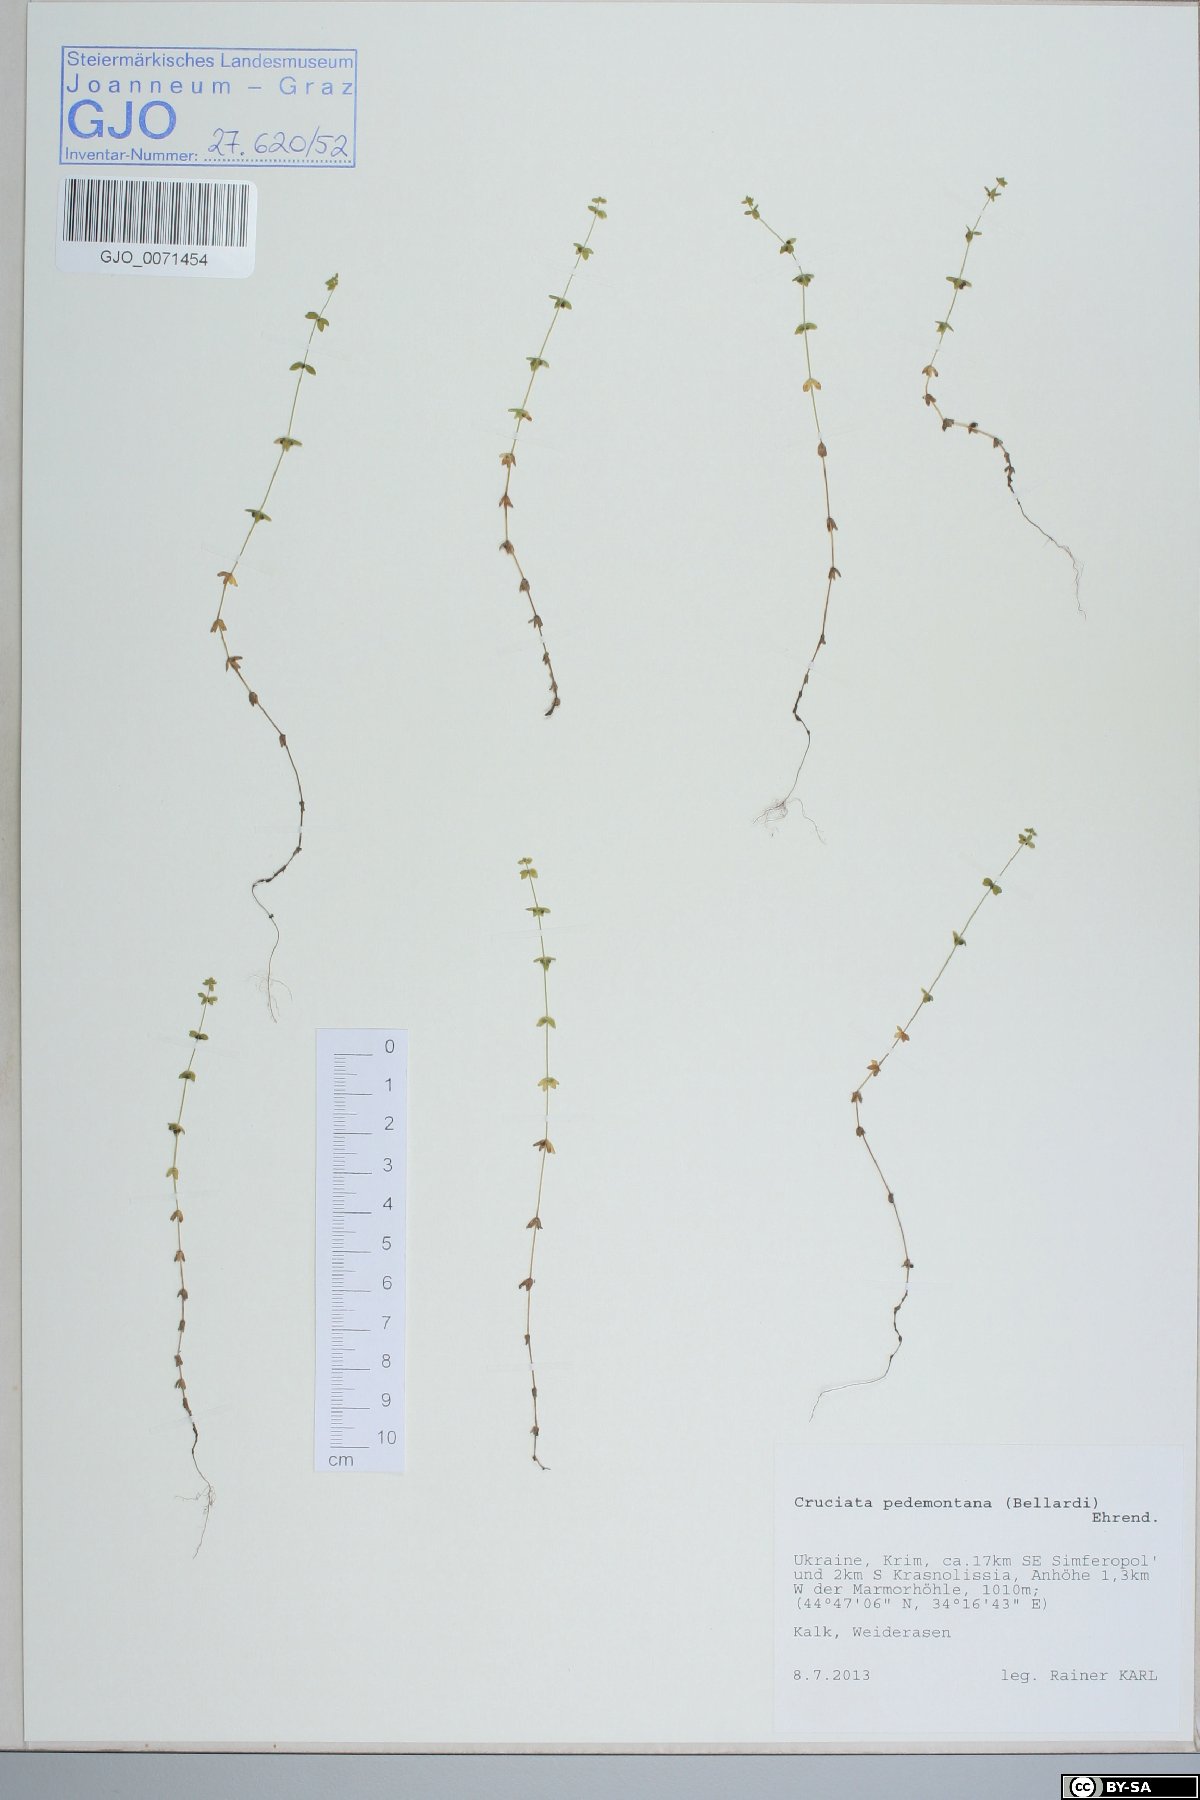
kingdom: Plantae
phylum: Tracheophyta
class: Magnoliopsida
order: Gentianales
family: Rubiaceae
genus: Cruciata
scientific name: Cruciata pedemontana
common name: Piedmont bedstraw
